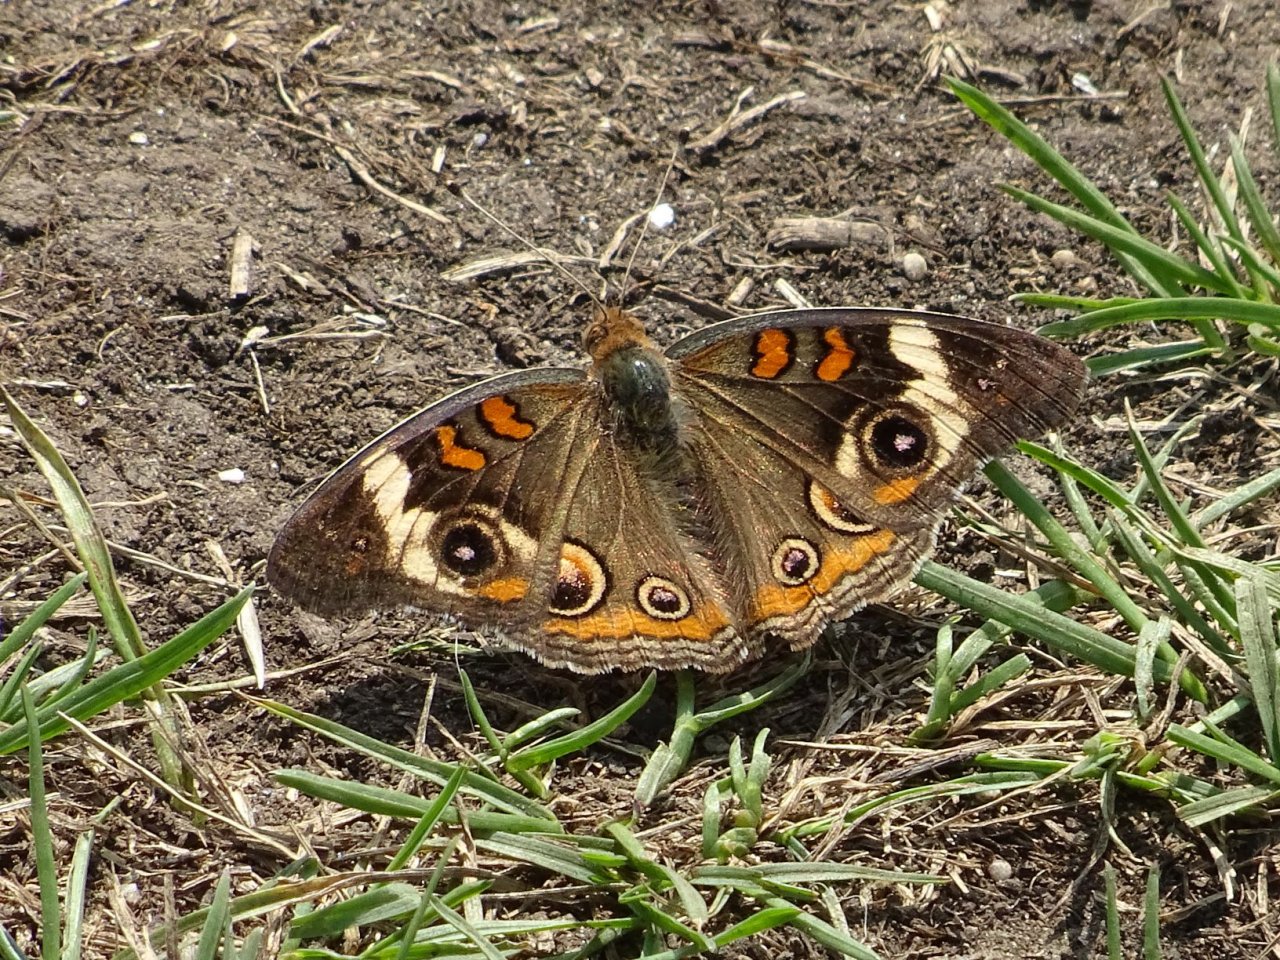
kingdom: Animalia
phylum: Arthropoda
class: Insecta
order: Lepidoptera
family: Nymphalidae
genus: Junonia
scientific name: Junonia coenia
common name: Common Buckeye
